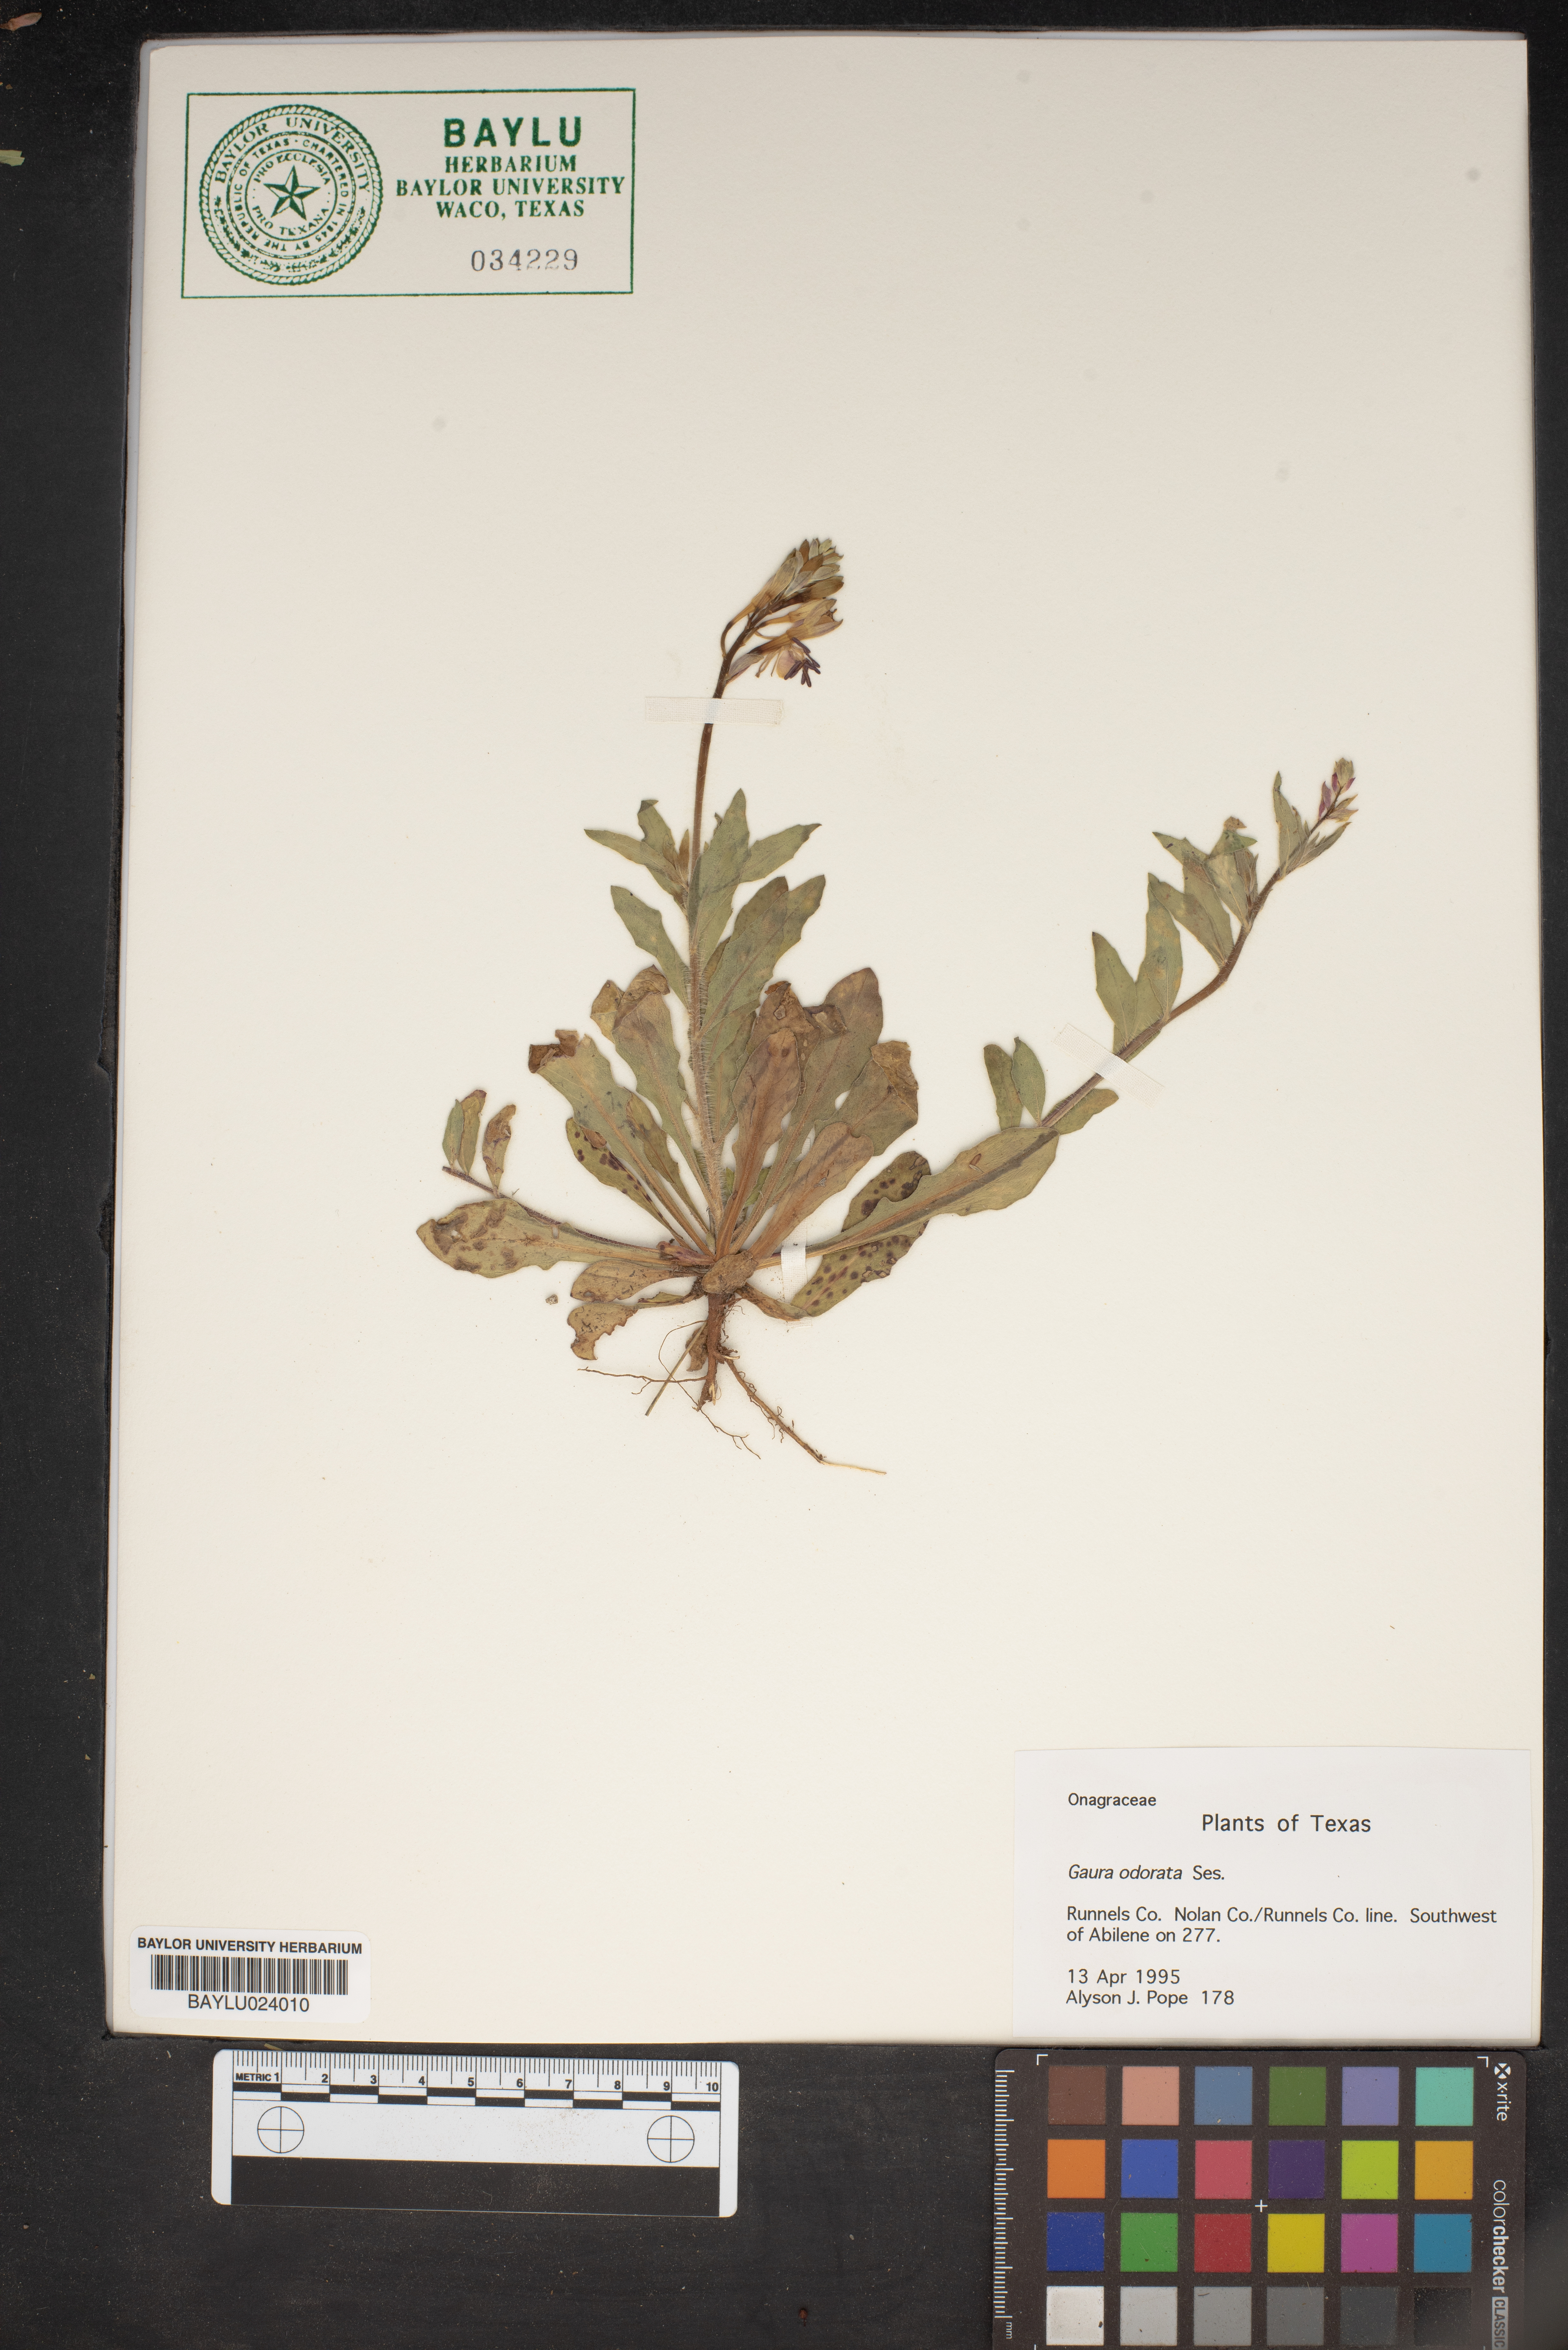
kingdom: Plantae
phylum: Tracheophyta
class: Magnoliopsida
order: Myrtales
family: Onagraceae
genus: Oenothera
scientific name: Oenothera
